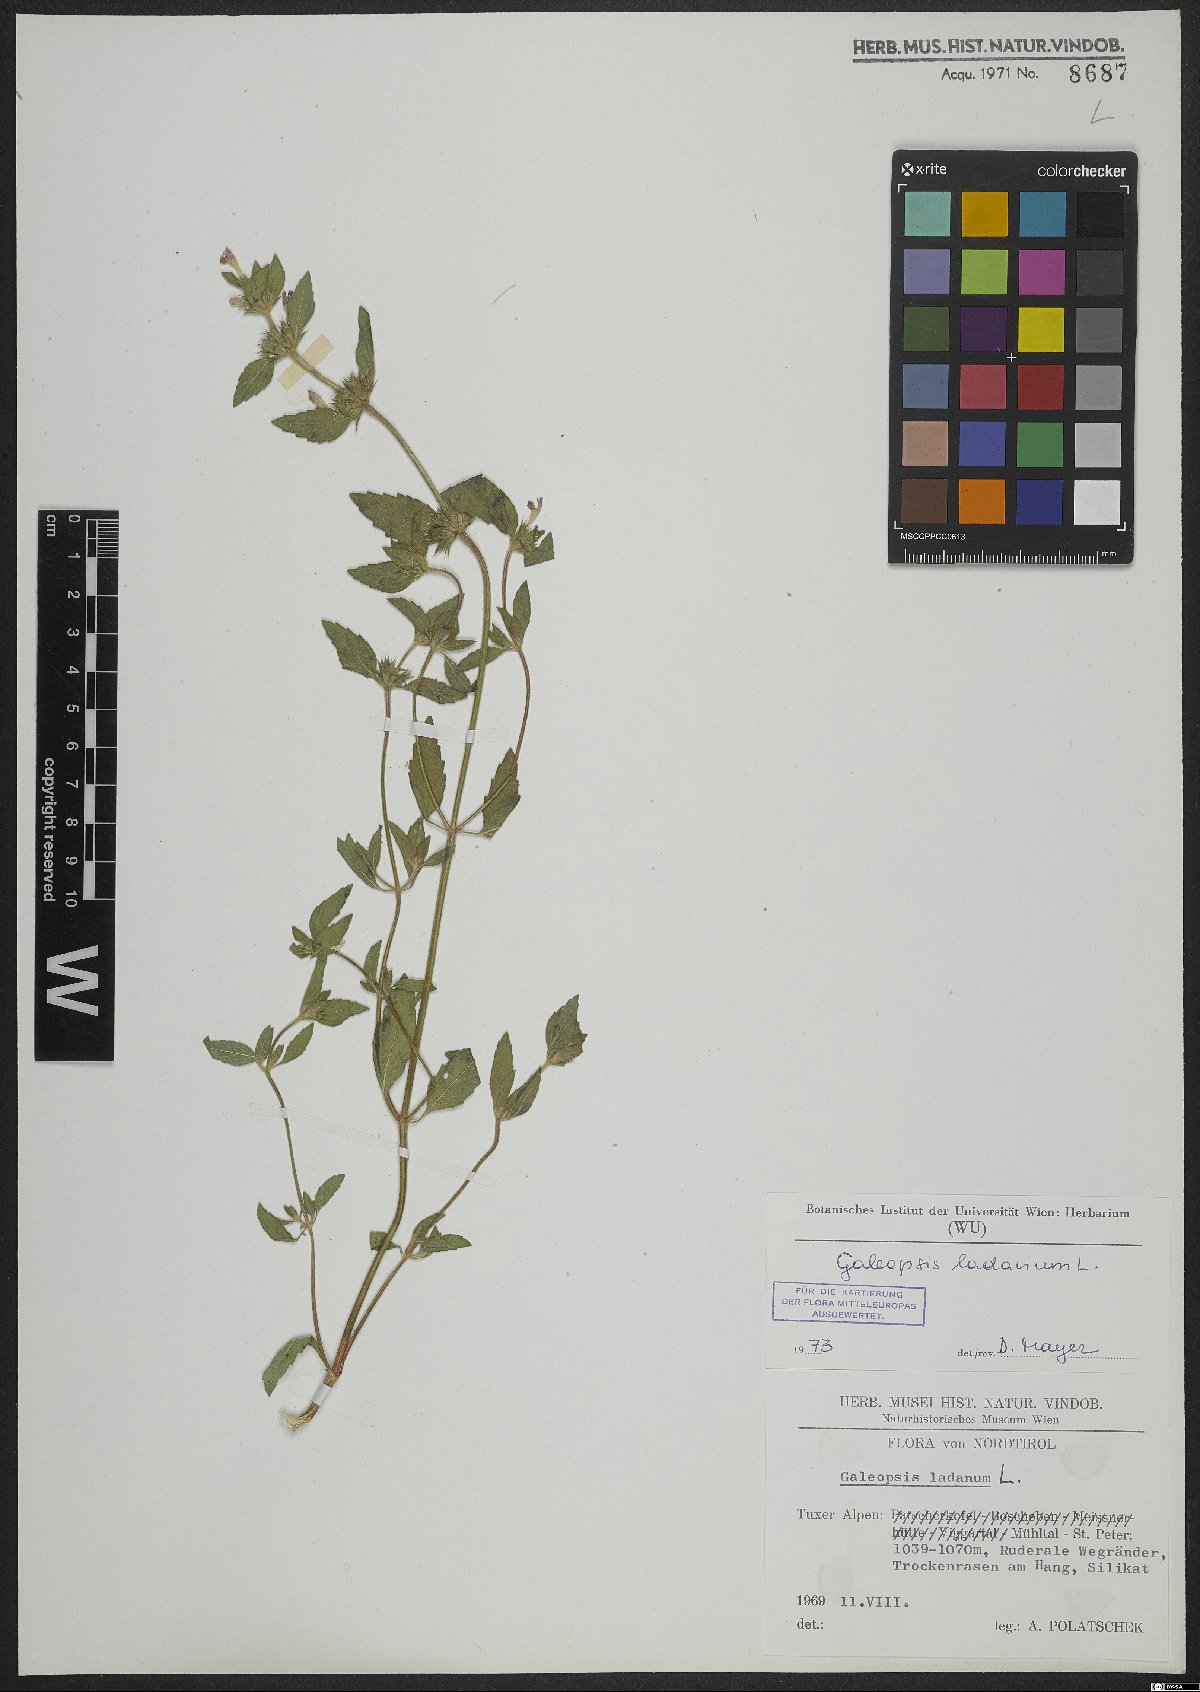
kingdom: Plantae
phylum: Tracheophyta
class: Magnoliopsida
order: Lamiales
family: Lamiaceae
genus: Galeopsis
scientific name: Galeopsis ladanum
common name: Broad-leaved hemp-nettle
